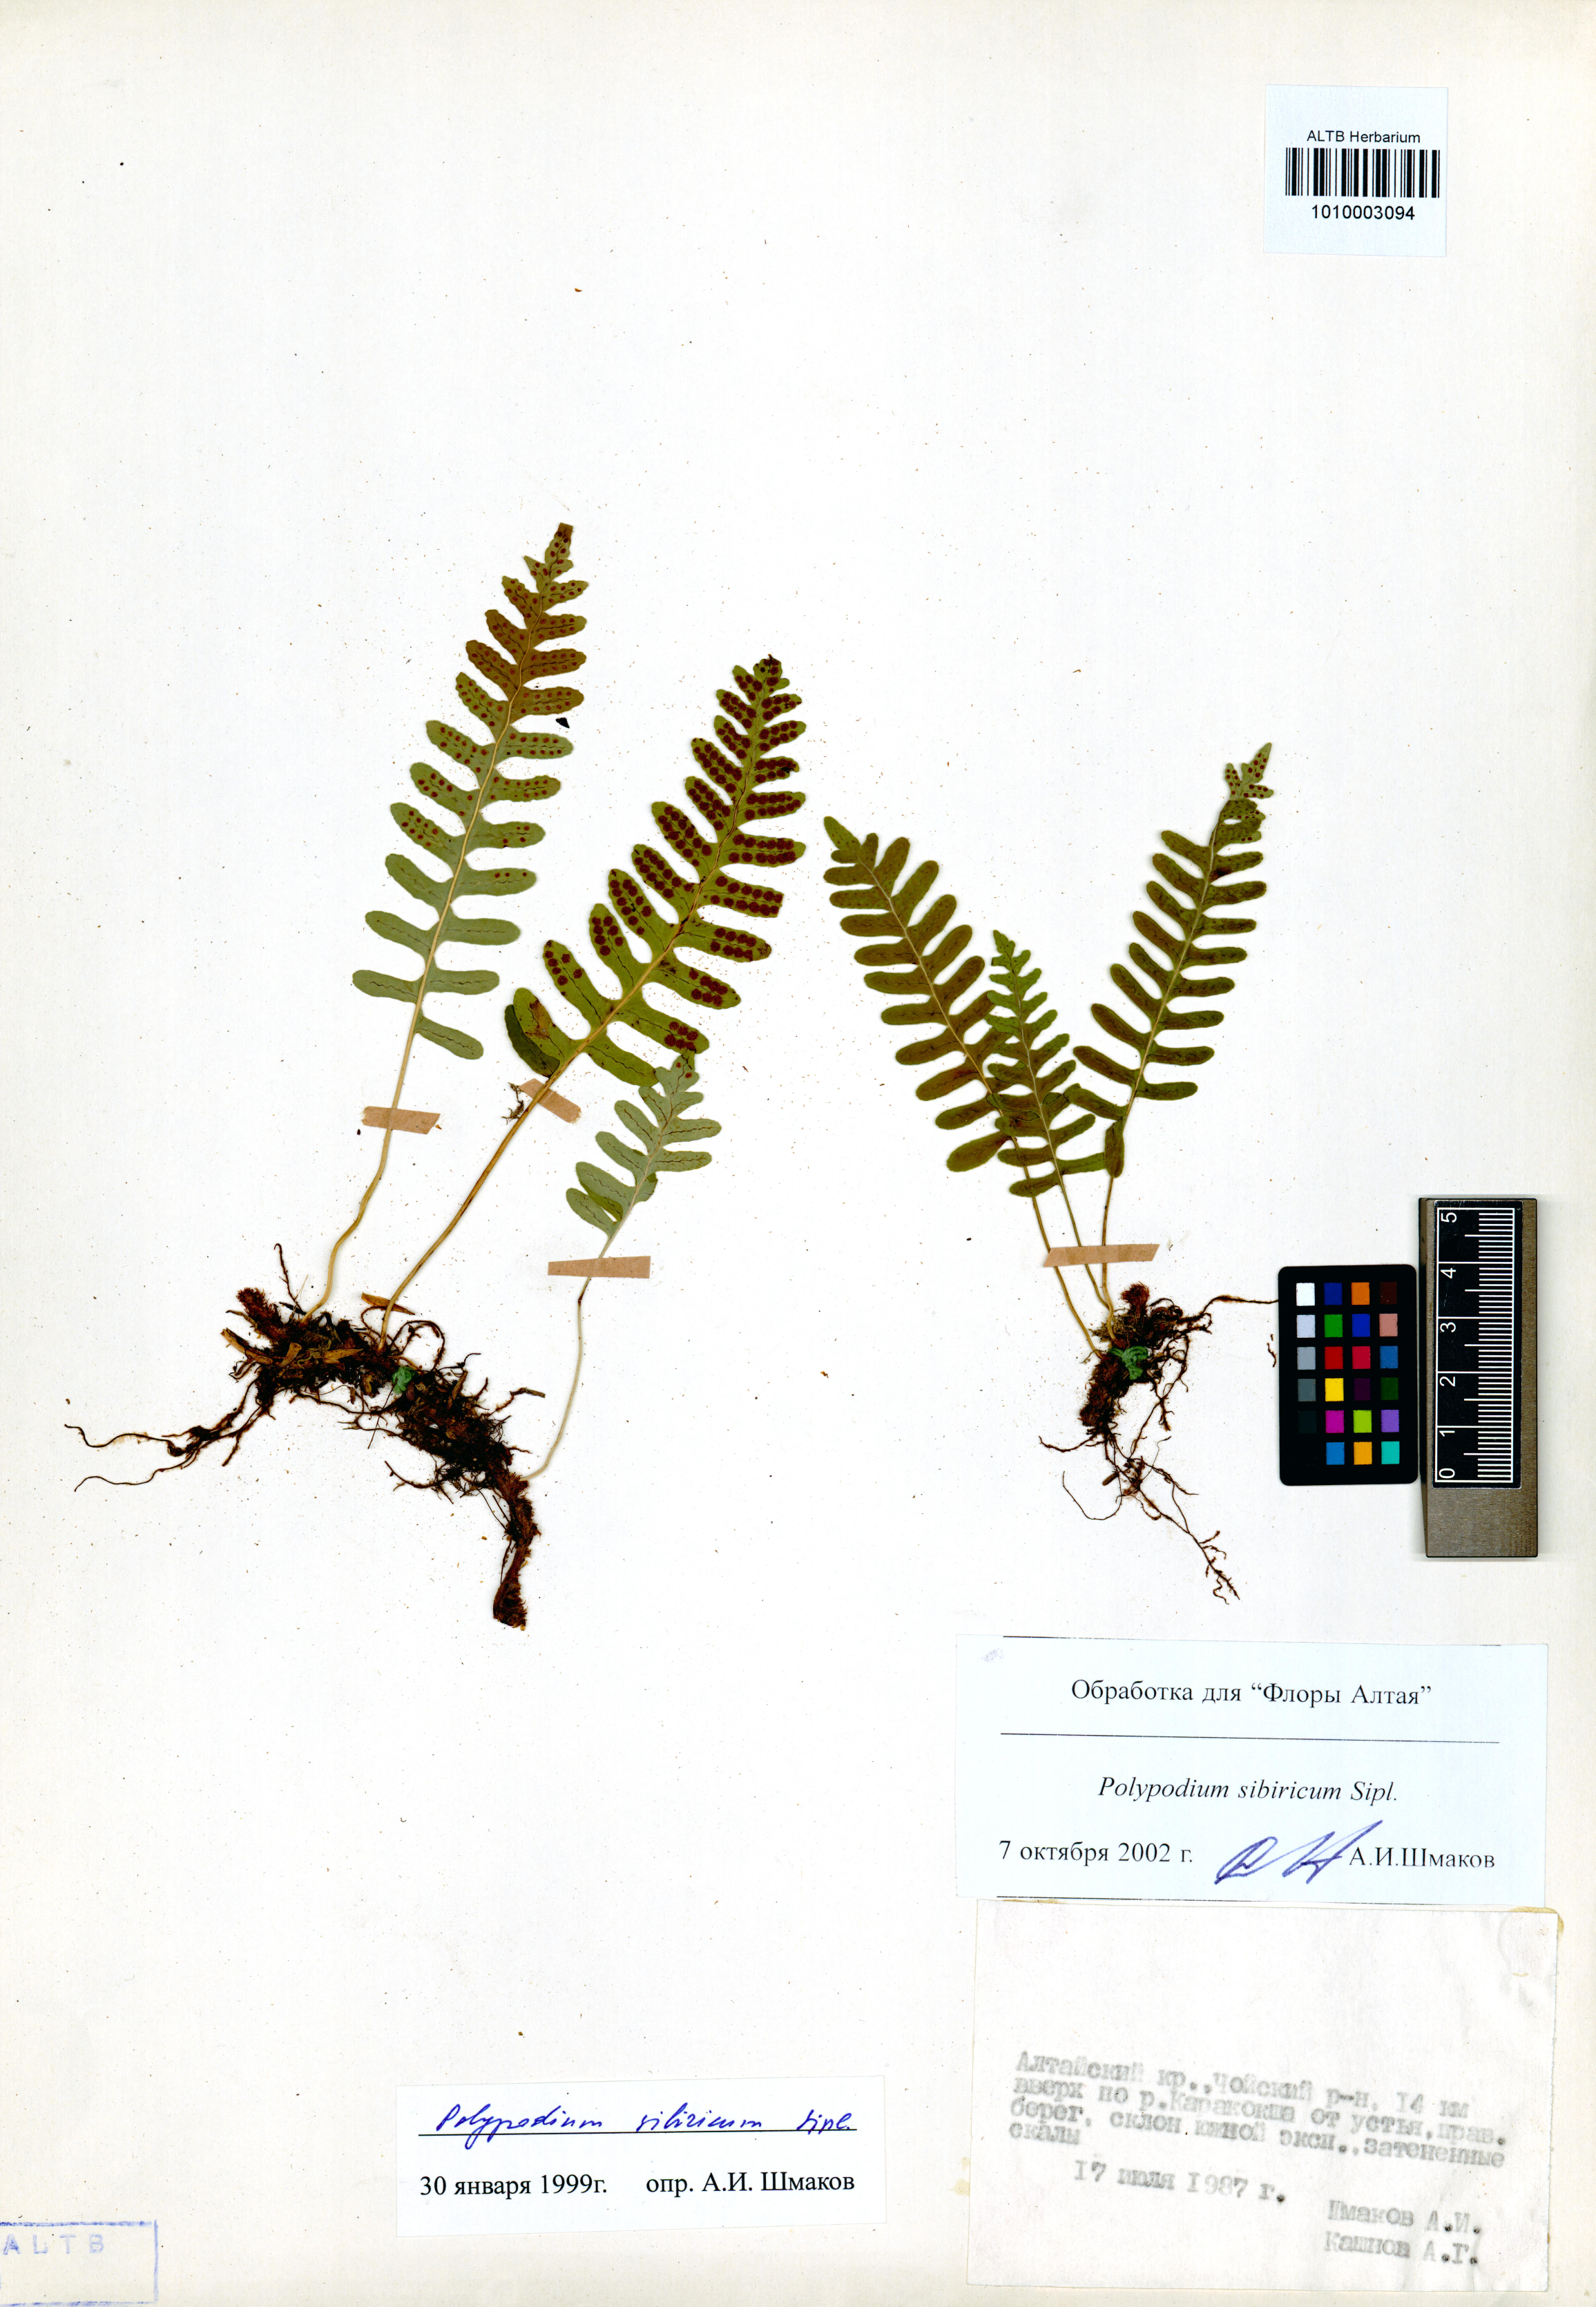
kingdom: Plantae
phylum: Tracheophyta
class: Polypodiopsida
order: Polypodiales
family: Polypodiaceae
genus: Polypodium
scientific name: Polypodium sibiricum
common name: Siberian polypody
